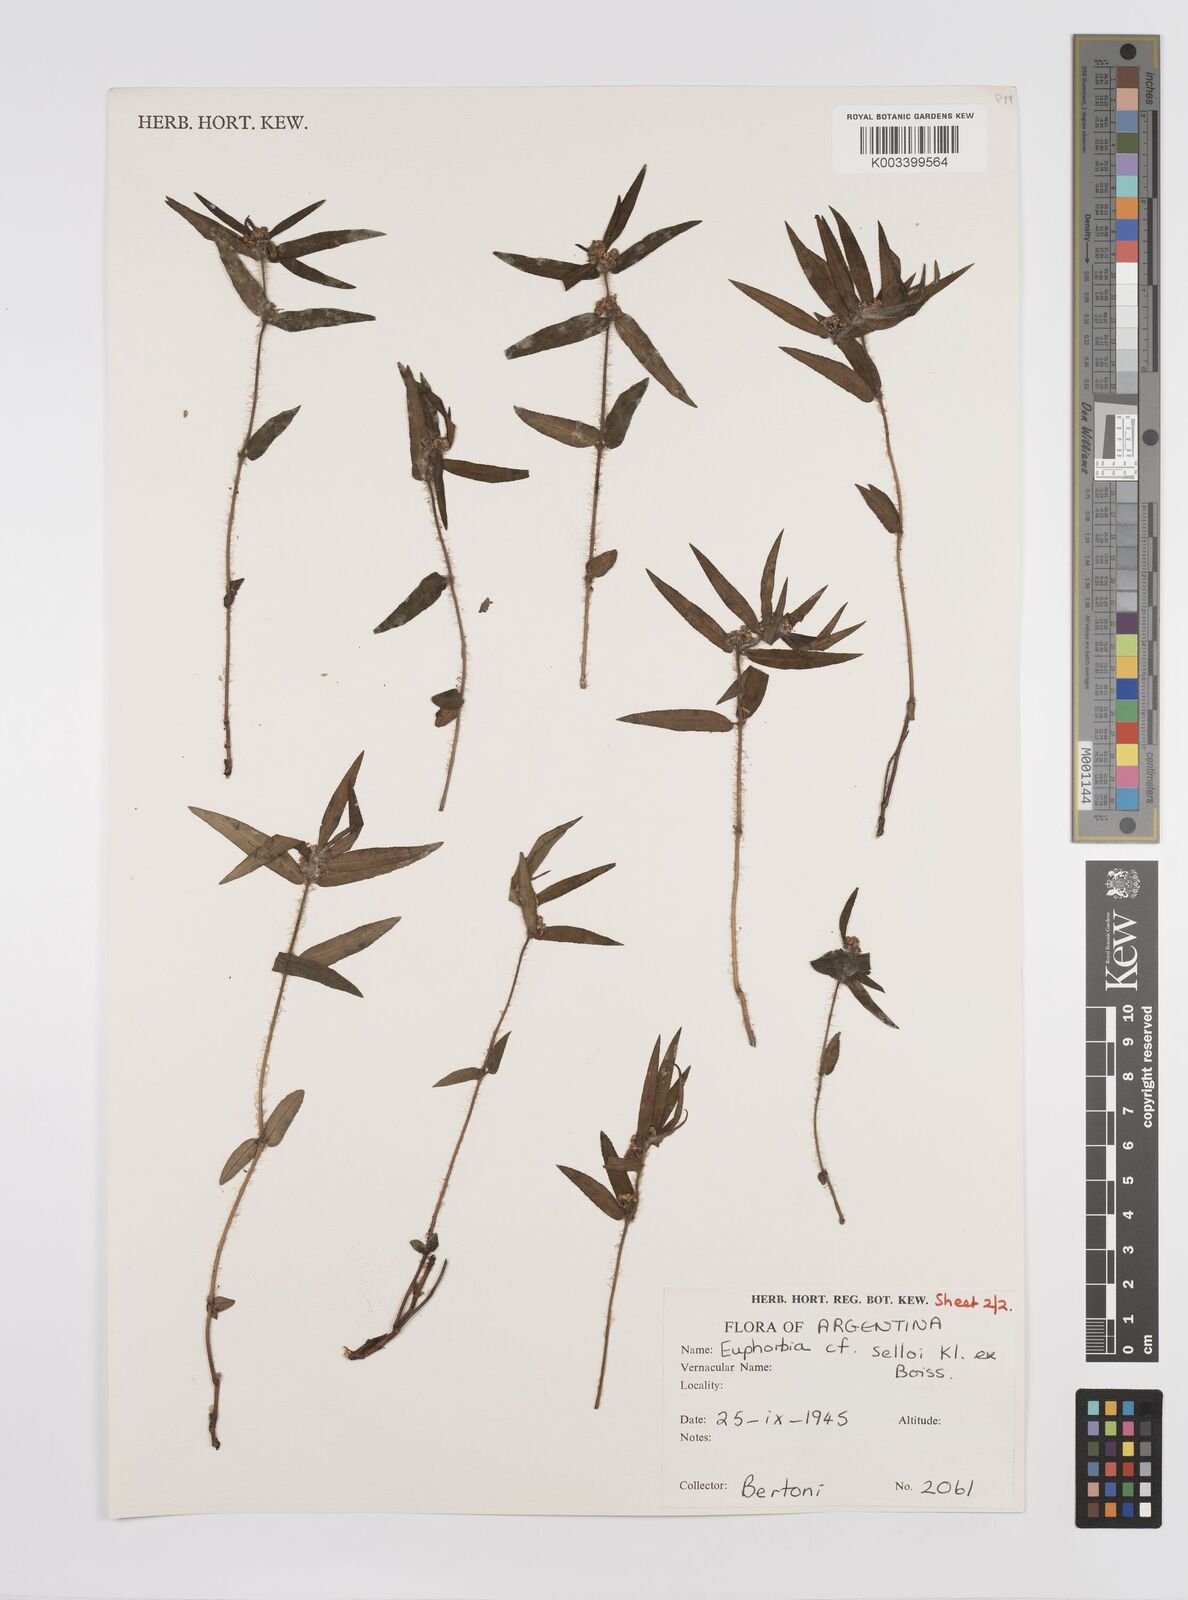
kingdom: Plantae
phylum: Tracheophyta
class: Magnoliopsida
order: Malpighiales
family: Euphorbiaceae
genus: Euphorbia
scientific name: Euphorbia selloi
